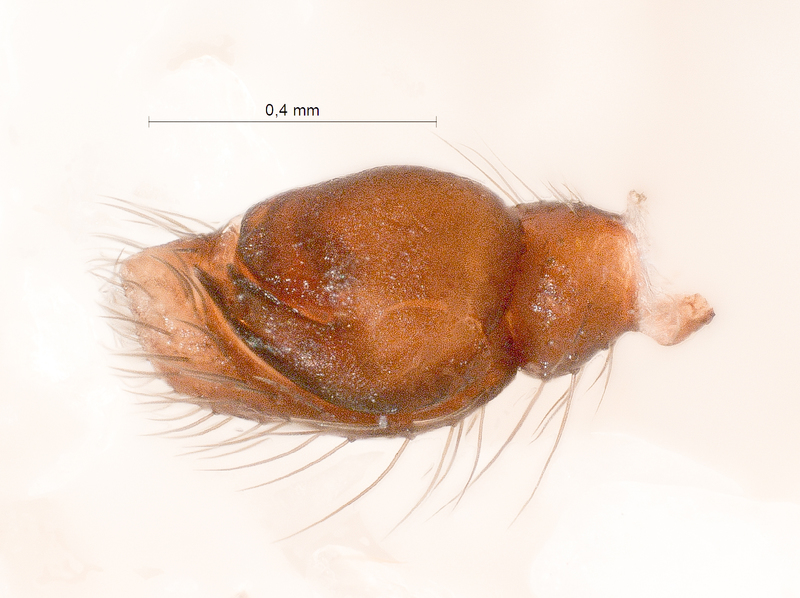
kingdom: Animalia
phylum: Arthropoda
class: Arachnida
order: Araneae
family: Salticidae
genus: Pellenes
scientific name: Pellenes nigrociliatus
